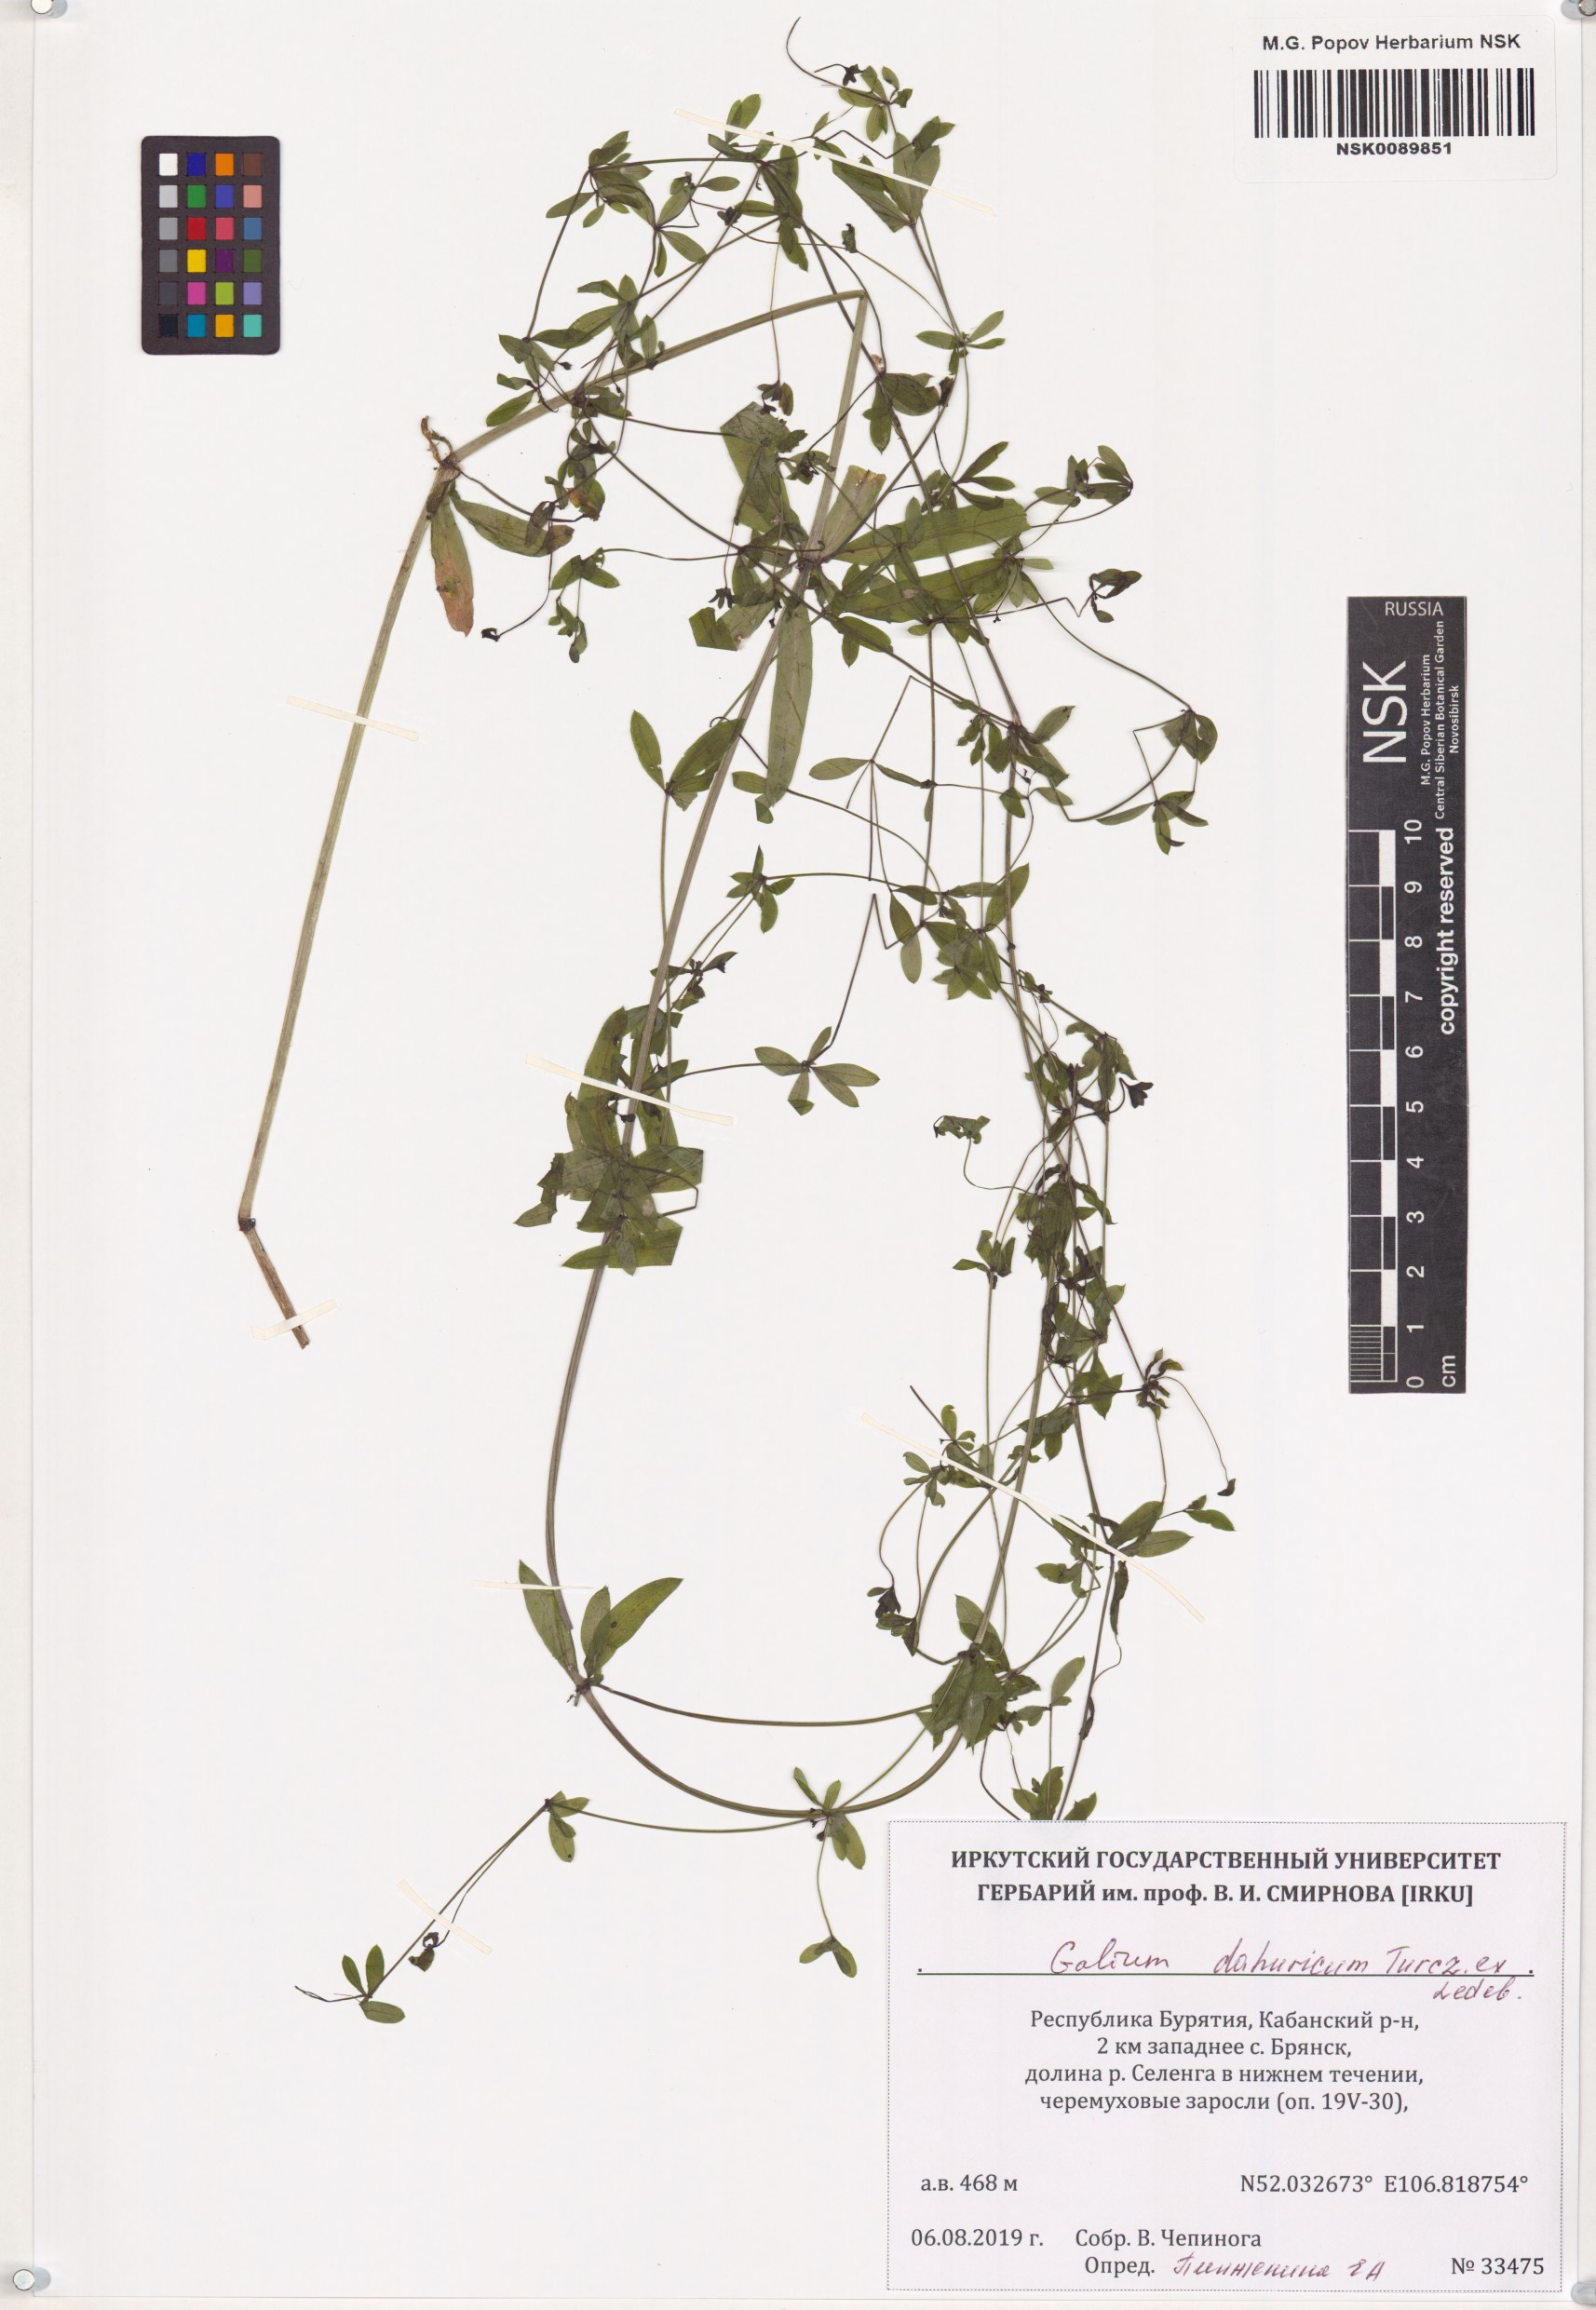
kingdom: Plantae
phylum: Tracheophyta
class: Magnoliopsida
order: Gentianales
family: Rubiaceae
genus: Galium
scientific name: Galium dahuricum
